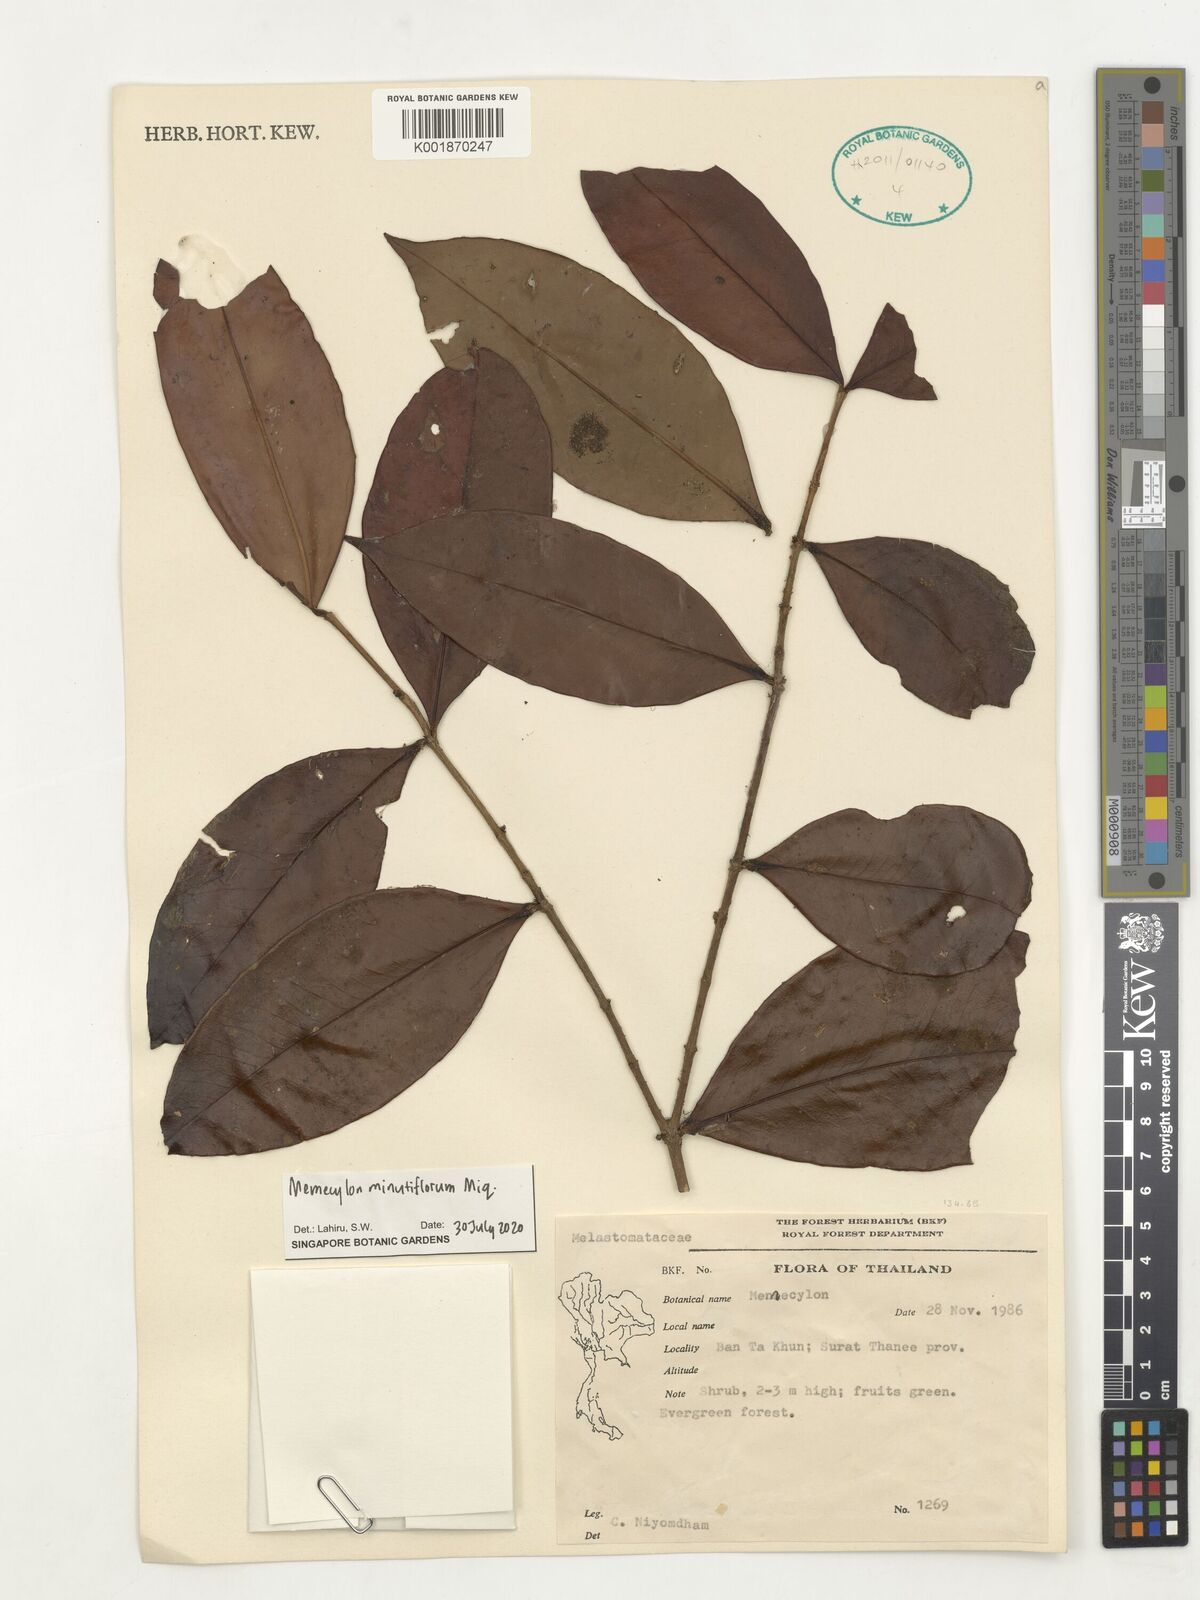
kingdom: Plantae
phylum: Tracheophyta
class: Magnoliopsida
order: Myrtales
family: Melastomataceae
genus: Memecylon
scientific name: Memecylon minutiflorum
